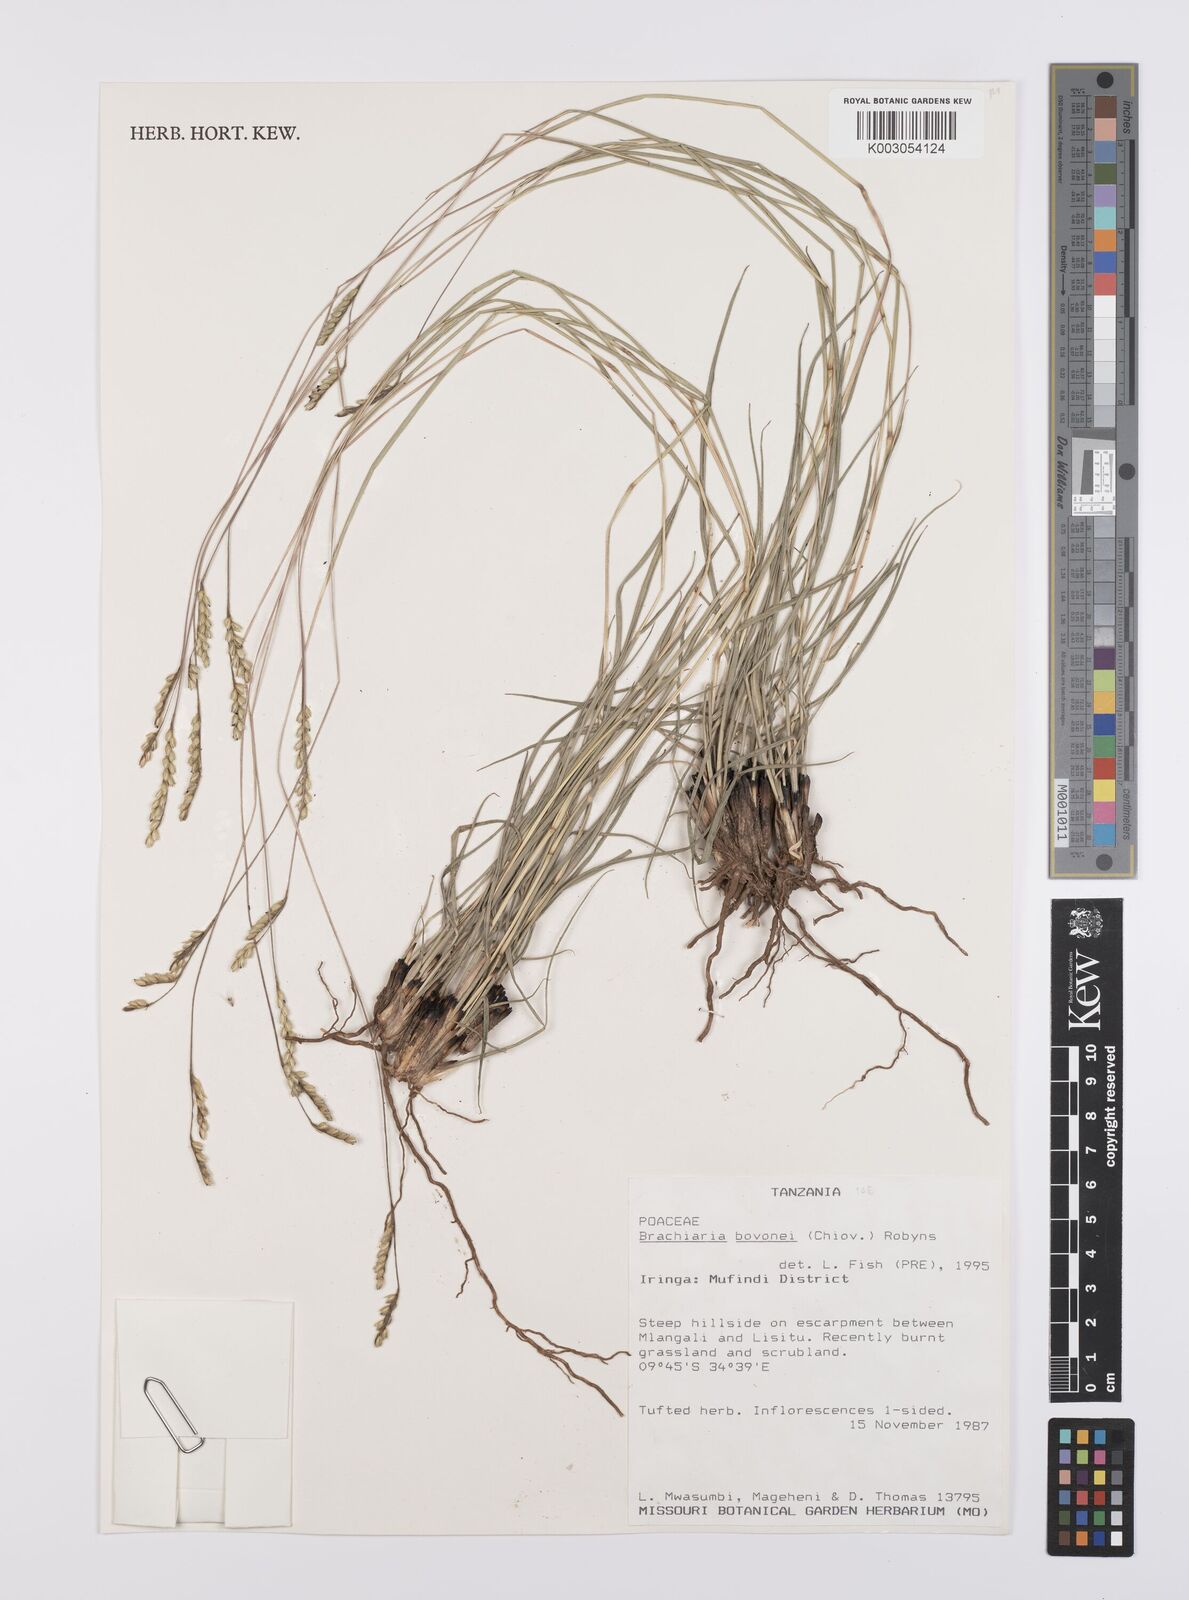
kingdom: Plantae
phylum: Tracheophyta
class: Liliopsida
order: Poales
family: Poaceae
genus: Urochloa
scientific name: Urochloa bovonei
